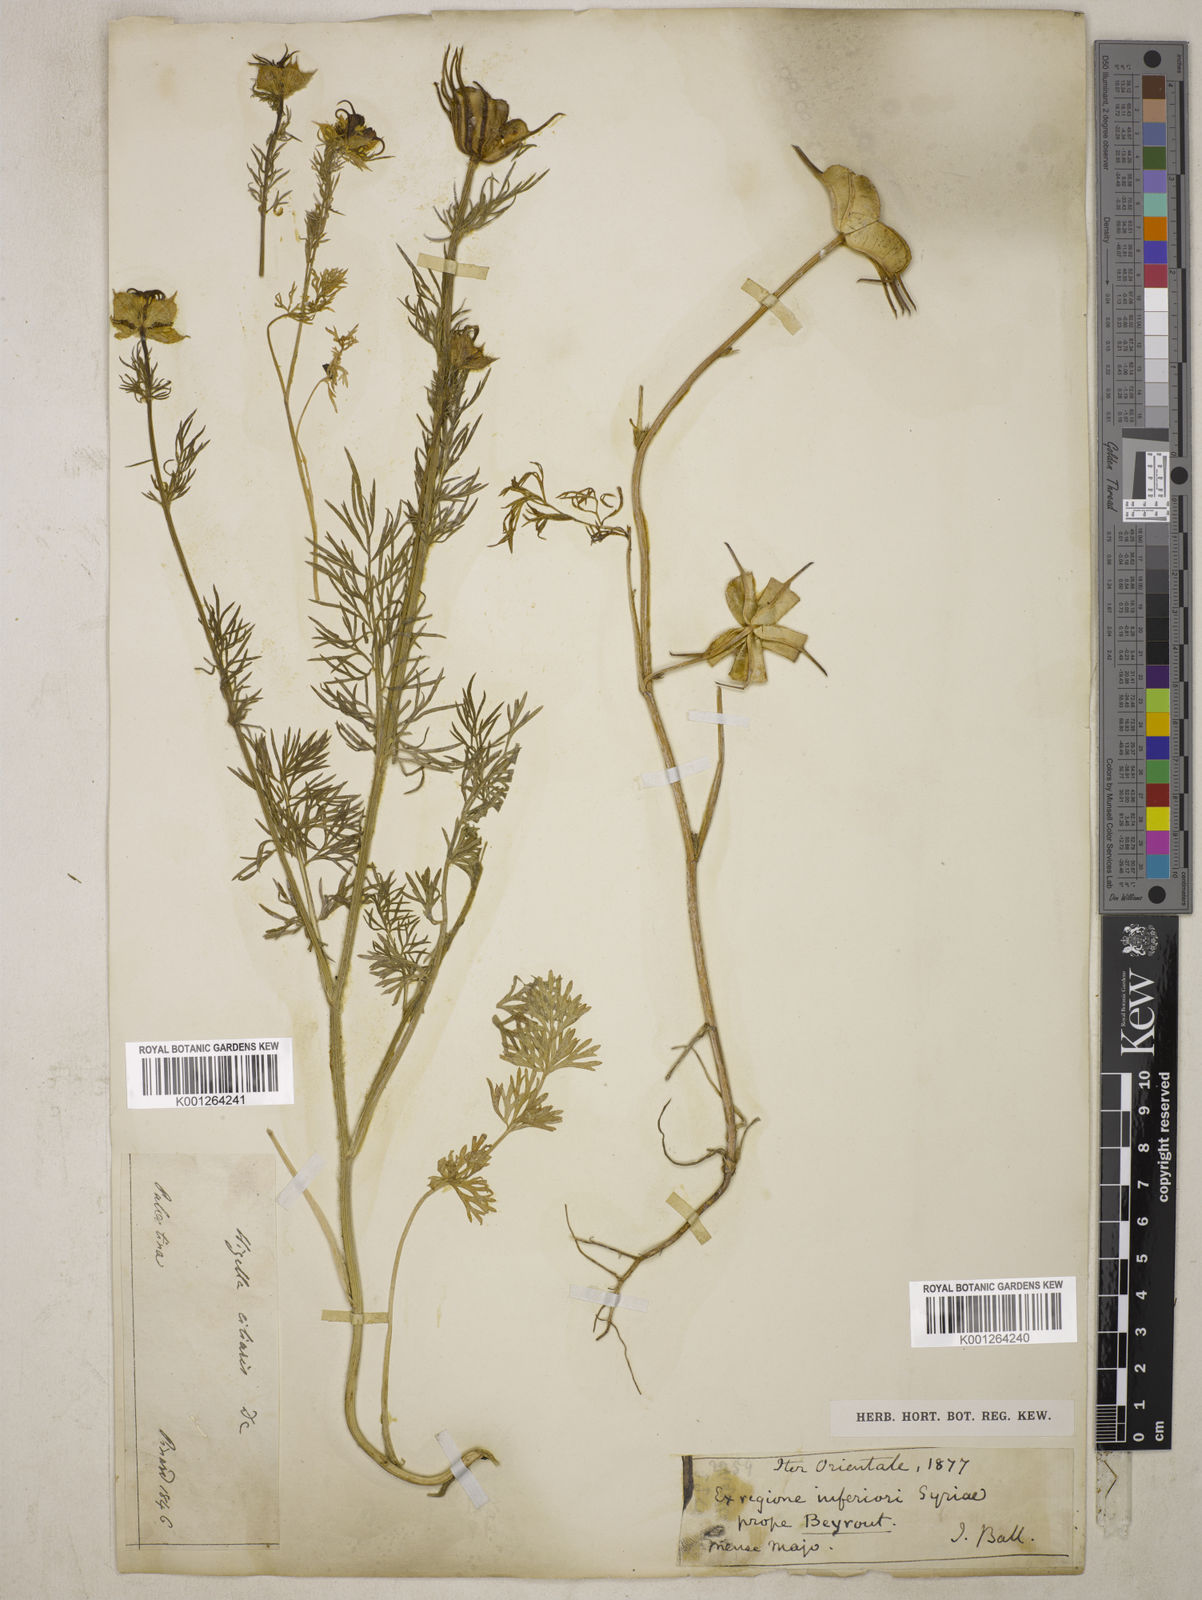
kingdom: Plantae
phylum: Tracheophyta
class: Magnoliopsida
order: Ranunculales
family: Ranunculaceae
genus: Nigella
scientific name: Nigella ciliaris
